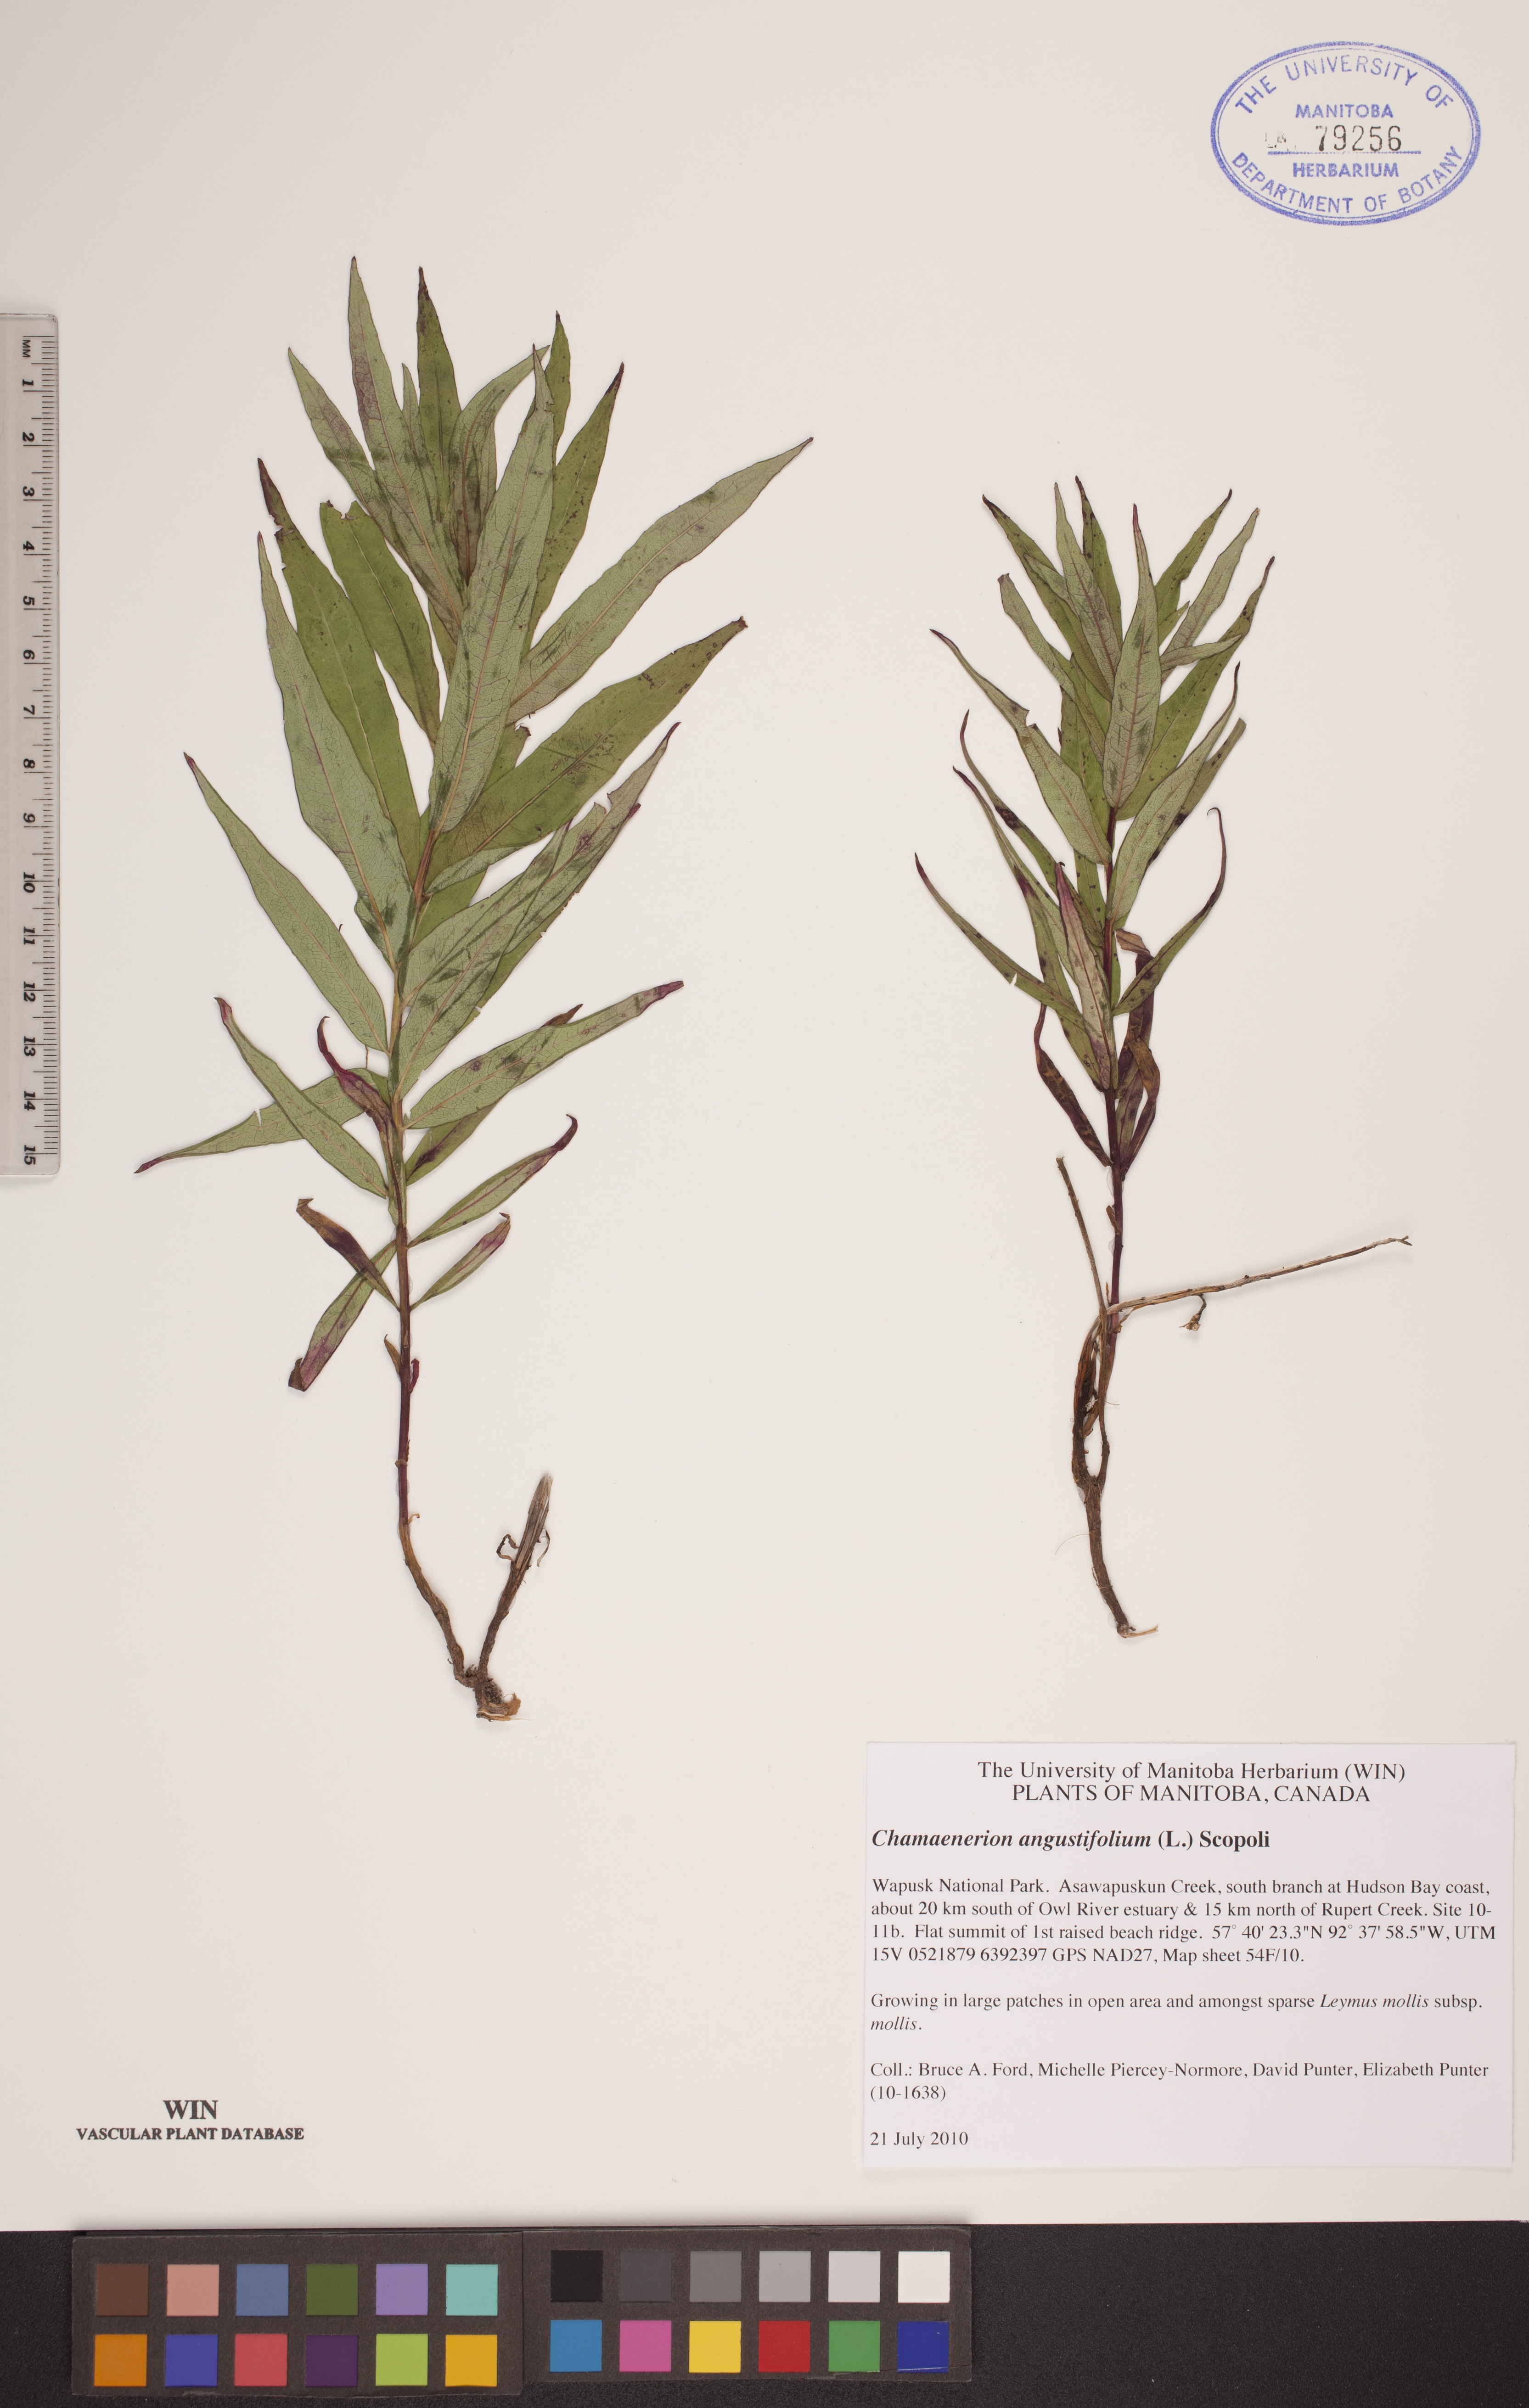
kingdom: Plantae
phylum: Tracheophyta
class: Magnoliopsida
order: Myrtales
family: Onagraceae
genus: Chamaenerion
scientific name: Chamaenerion angustifolium
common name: Fireweed
